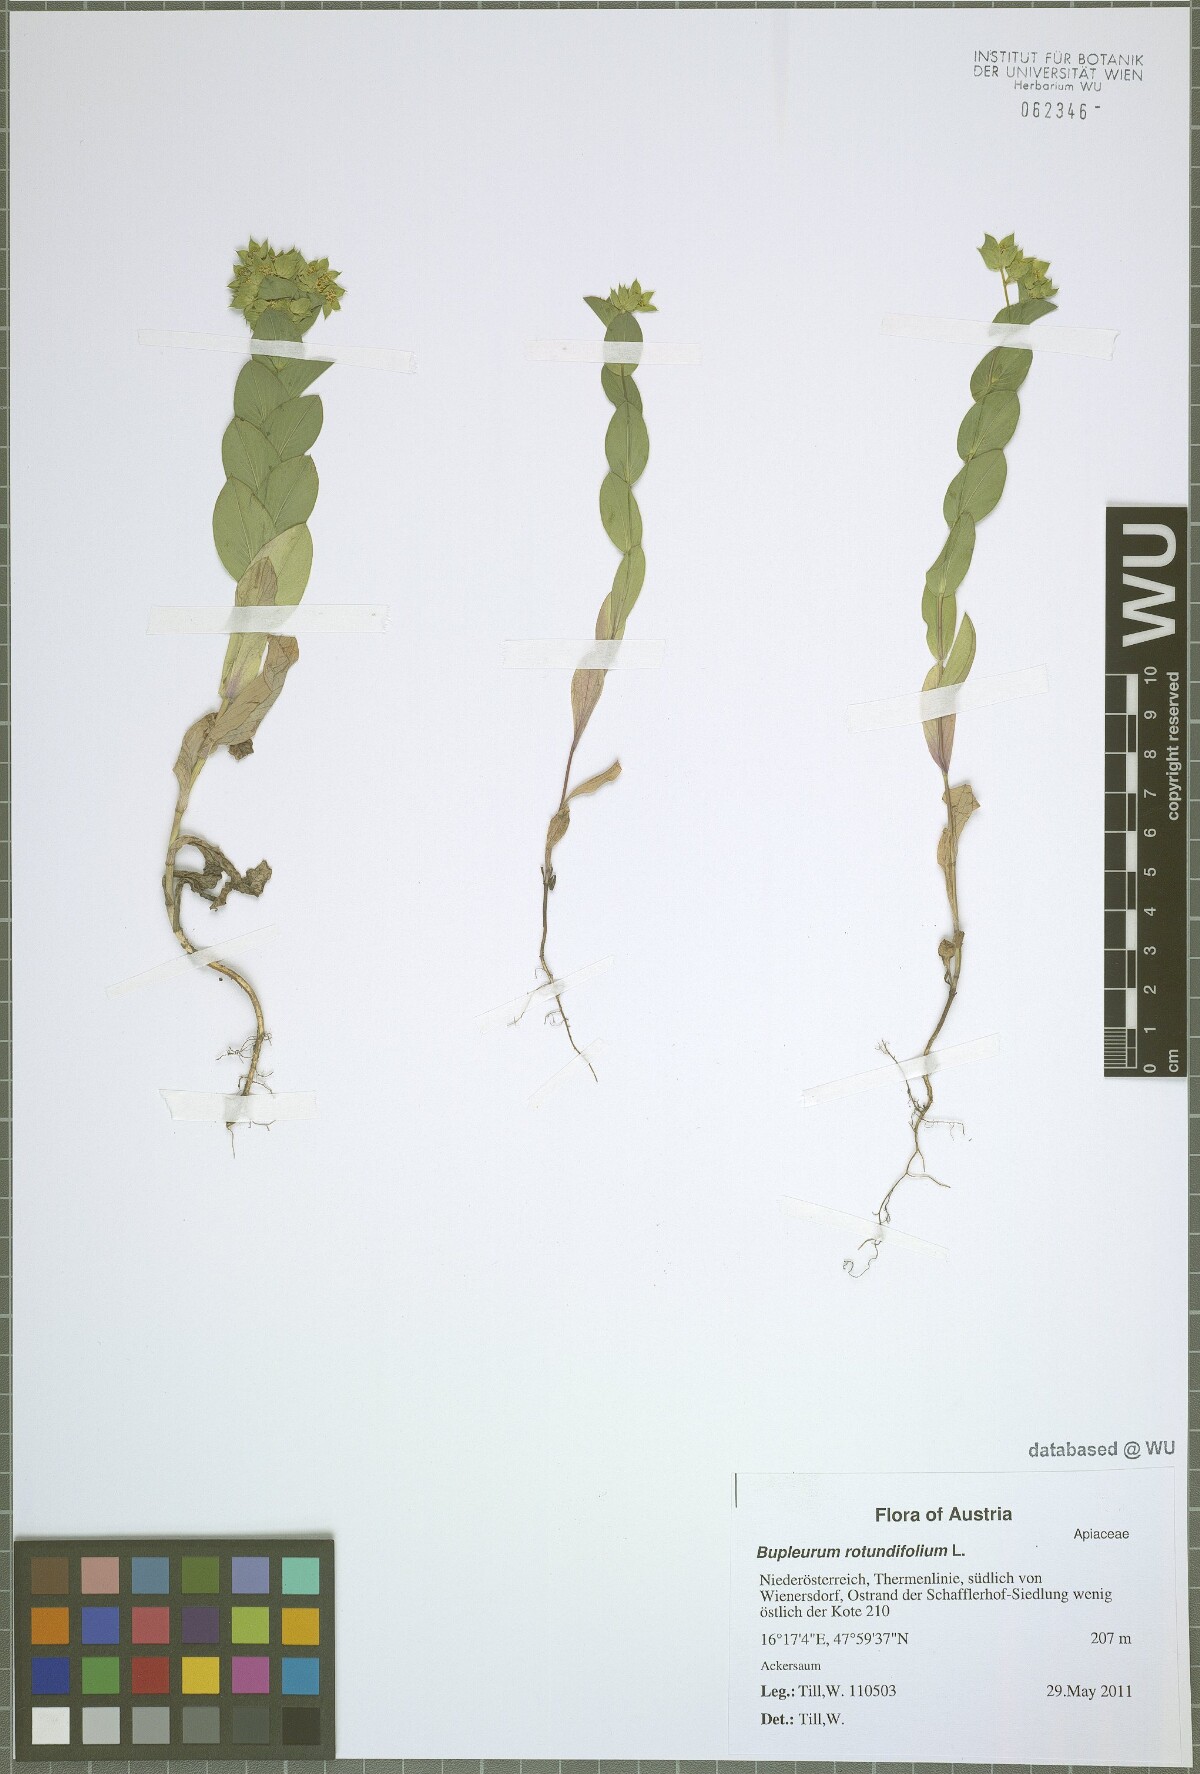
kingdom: Plantae
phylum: Tracheophyta
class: Magnoliopsida
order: Apiales
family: Apiaceae
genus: Bupleurum
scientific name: Bupleurum rotundifolium
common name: Thorow-wax
